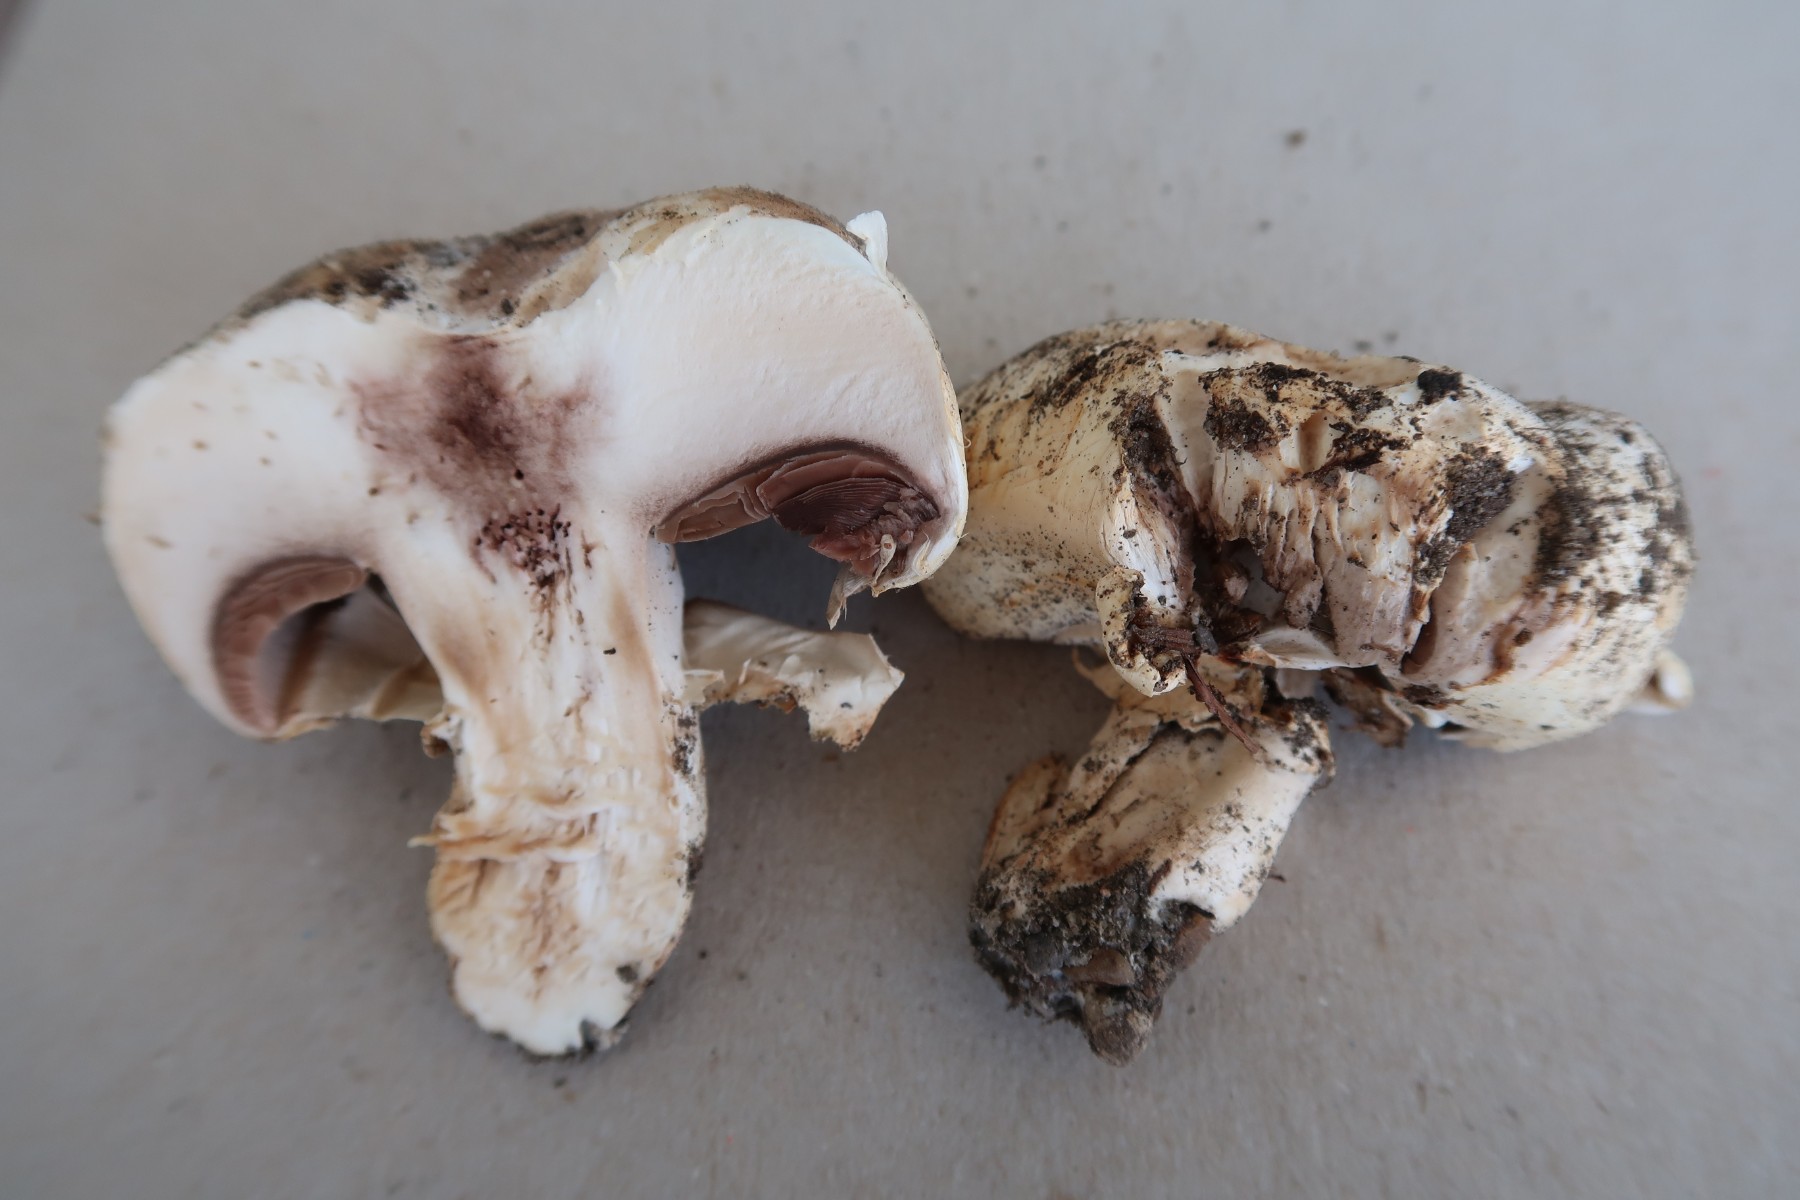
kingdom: Fungi
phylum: Basidiomycota
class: Agaricomycetes
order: Agaricales
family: Agaricaceae
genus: Agaricus
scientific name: Agaricus bitorquis
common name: vej-champignon
